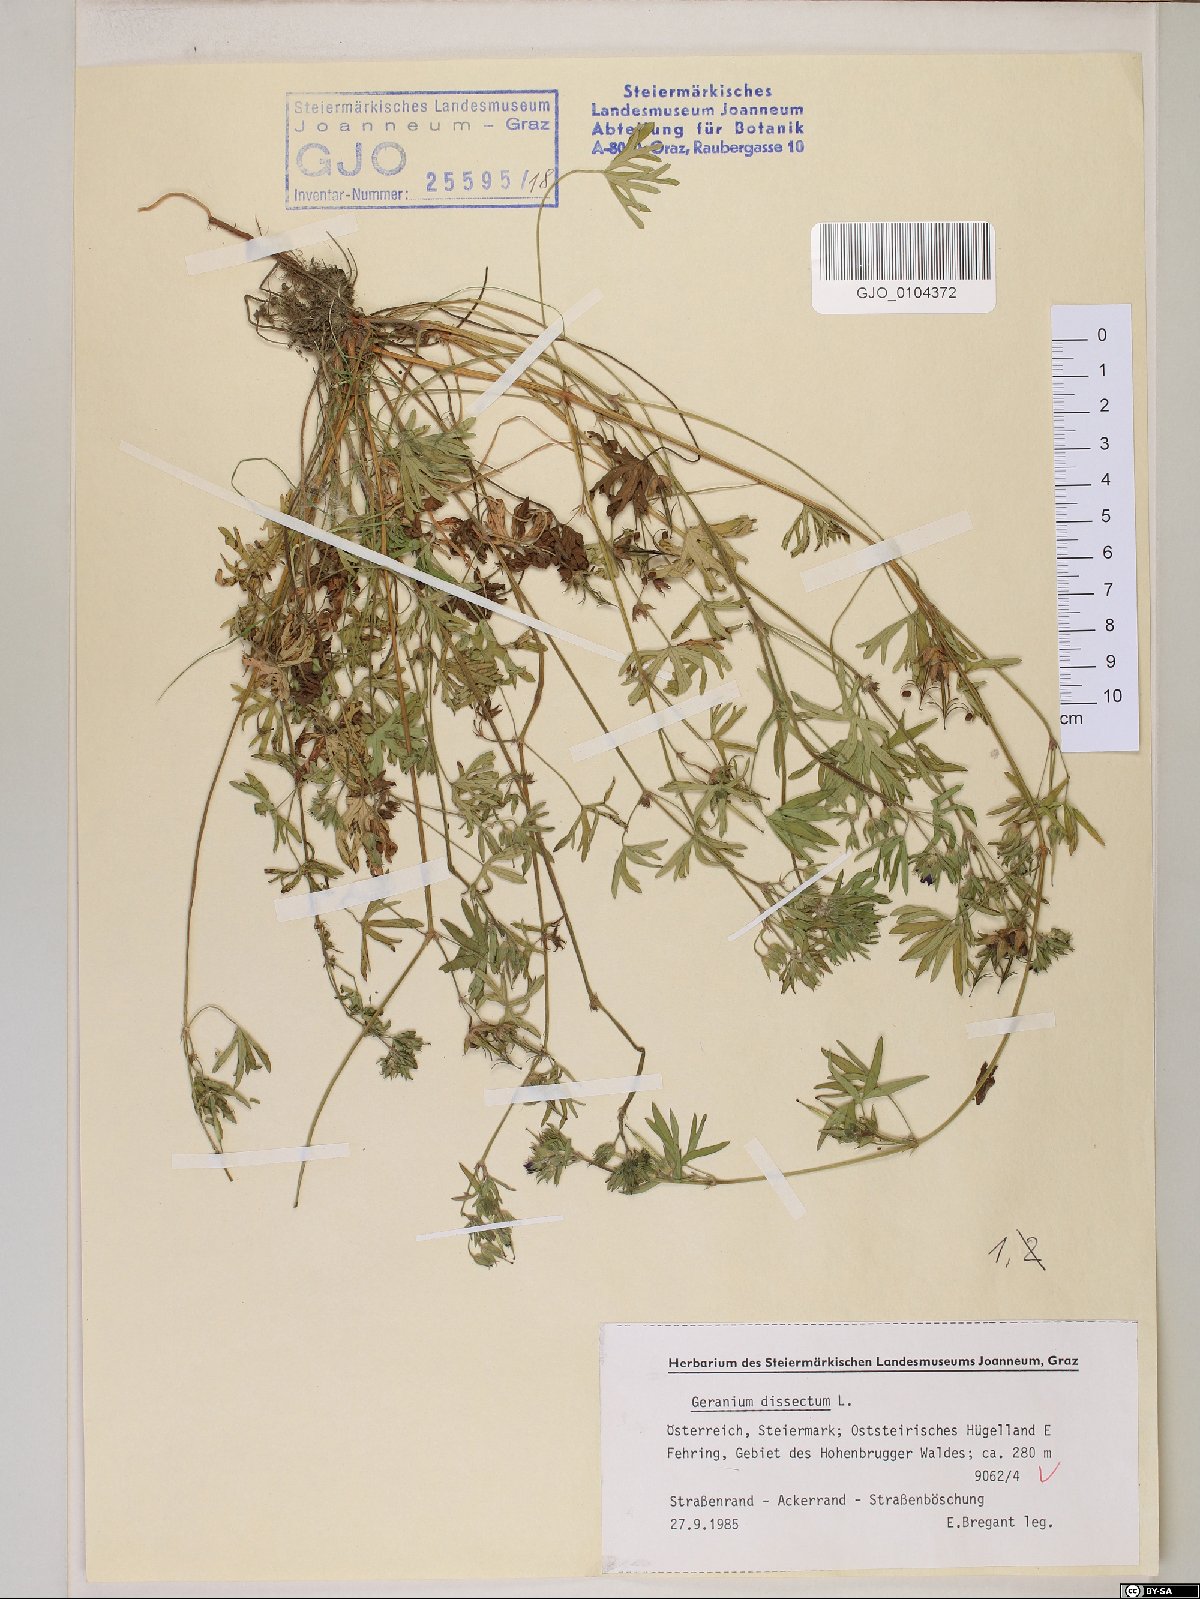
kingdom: Plantae
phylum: Tracheophyta
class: Magnoliopsida
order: Geraniales
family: Geraniaceae
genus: Geranium
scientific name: Geranium dissectum
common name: Cut-leaved crane's-bill
